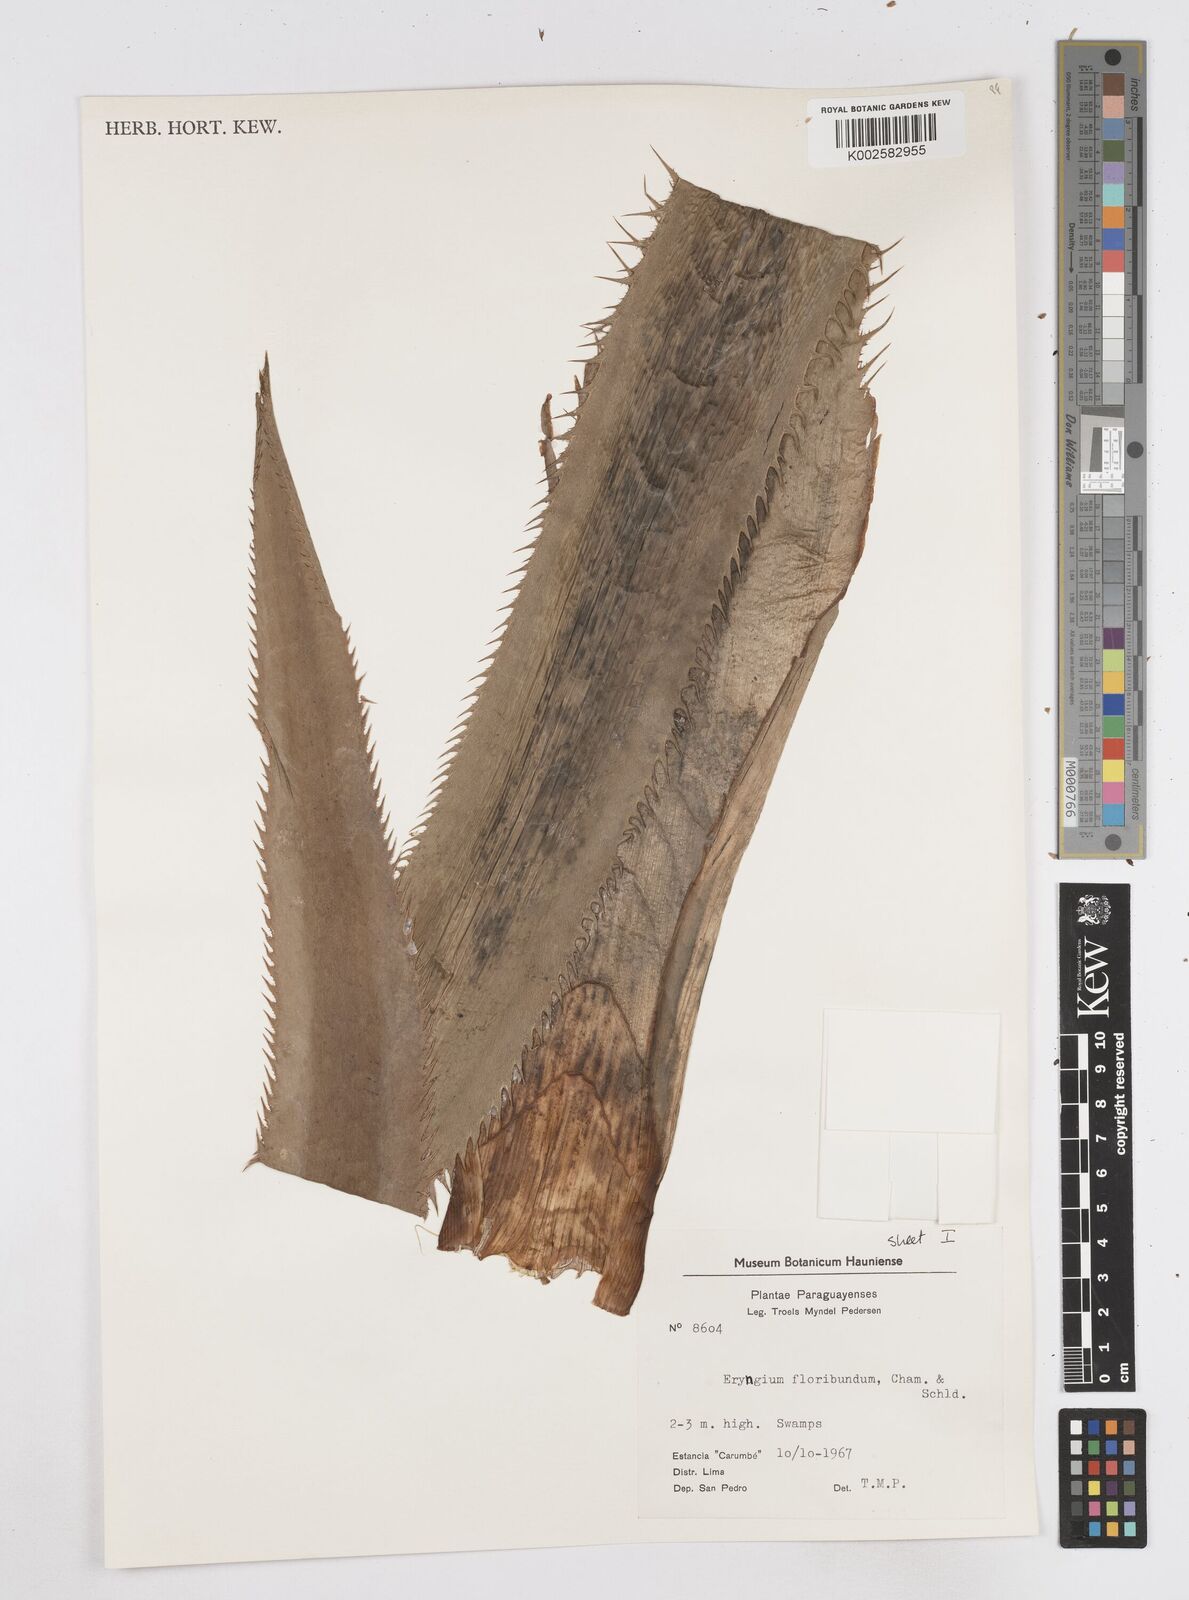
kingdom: Plantae
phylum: Tracheophyta
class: Magnoliopsida
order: Apiales
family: Apiaceae
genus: Eryngium
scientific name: Eryngium floribundum
